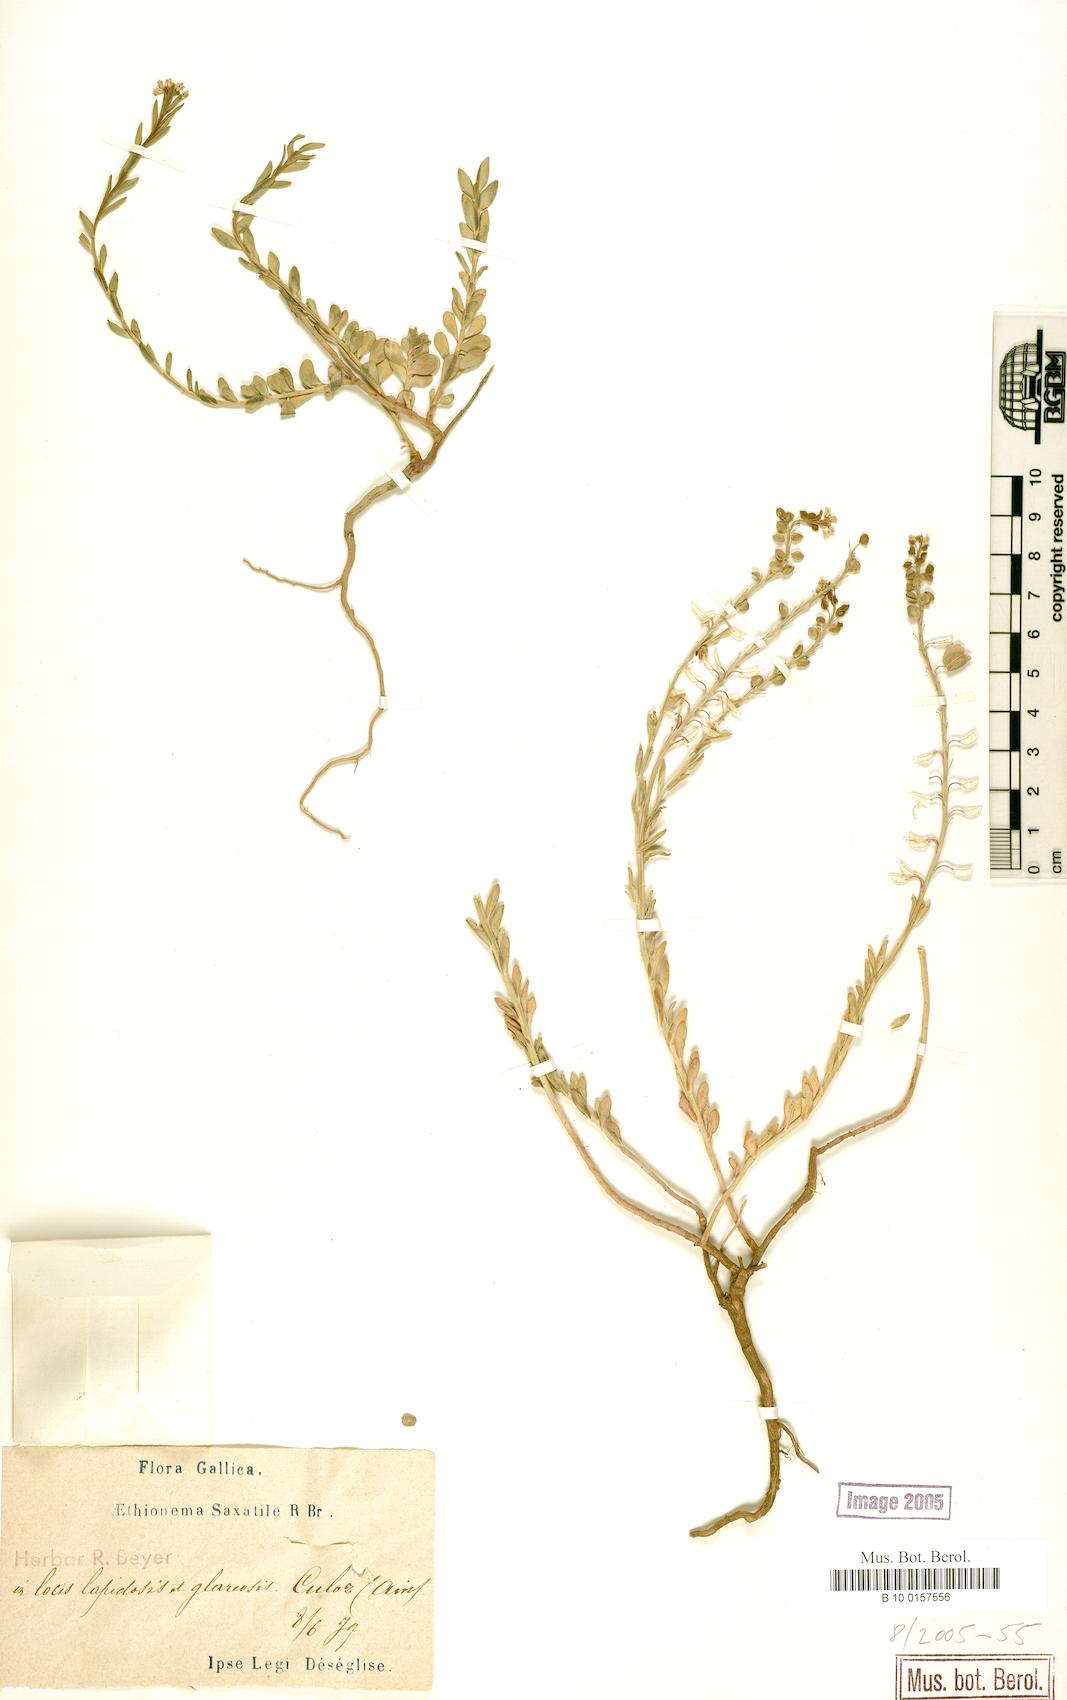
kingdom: Plantae
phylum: Tracheophyta
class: Magnoliopsida
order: Brassicales
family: Brassicaceae
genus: Aethionema
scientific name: Aethionema saxatile
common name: Burnt candytuft
